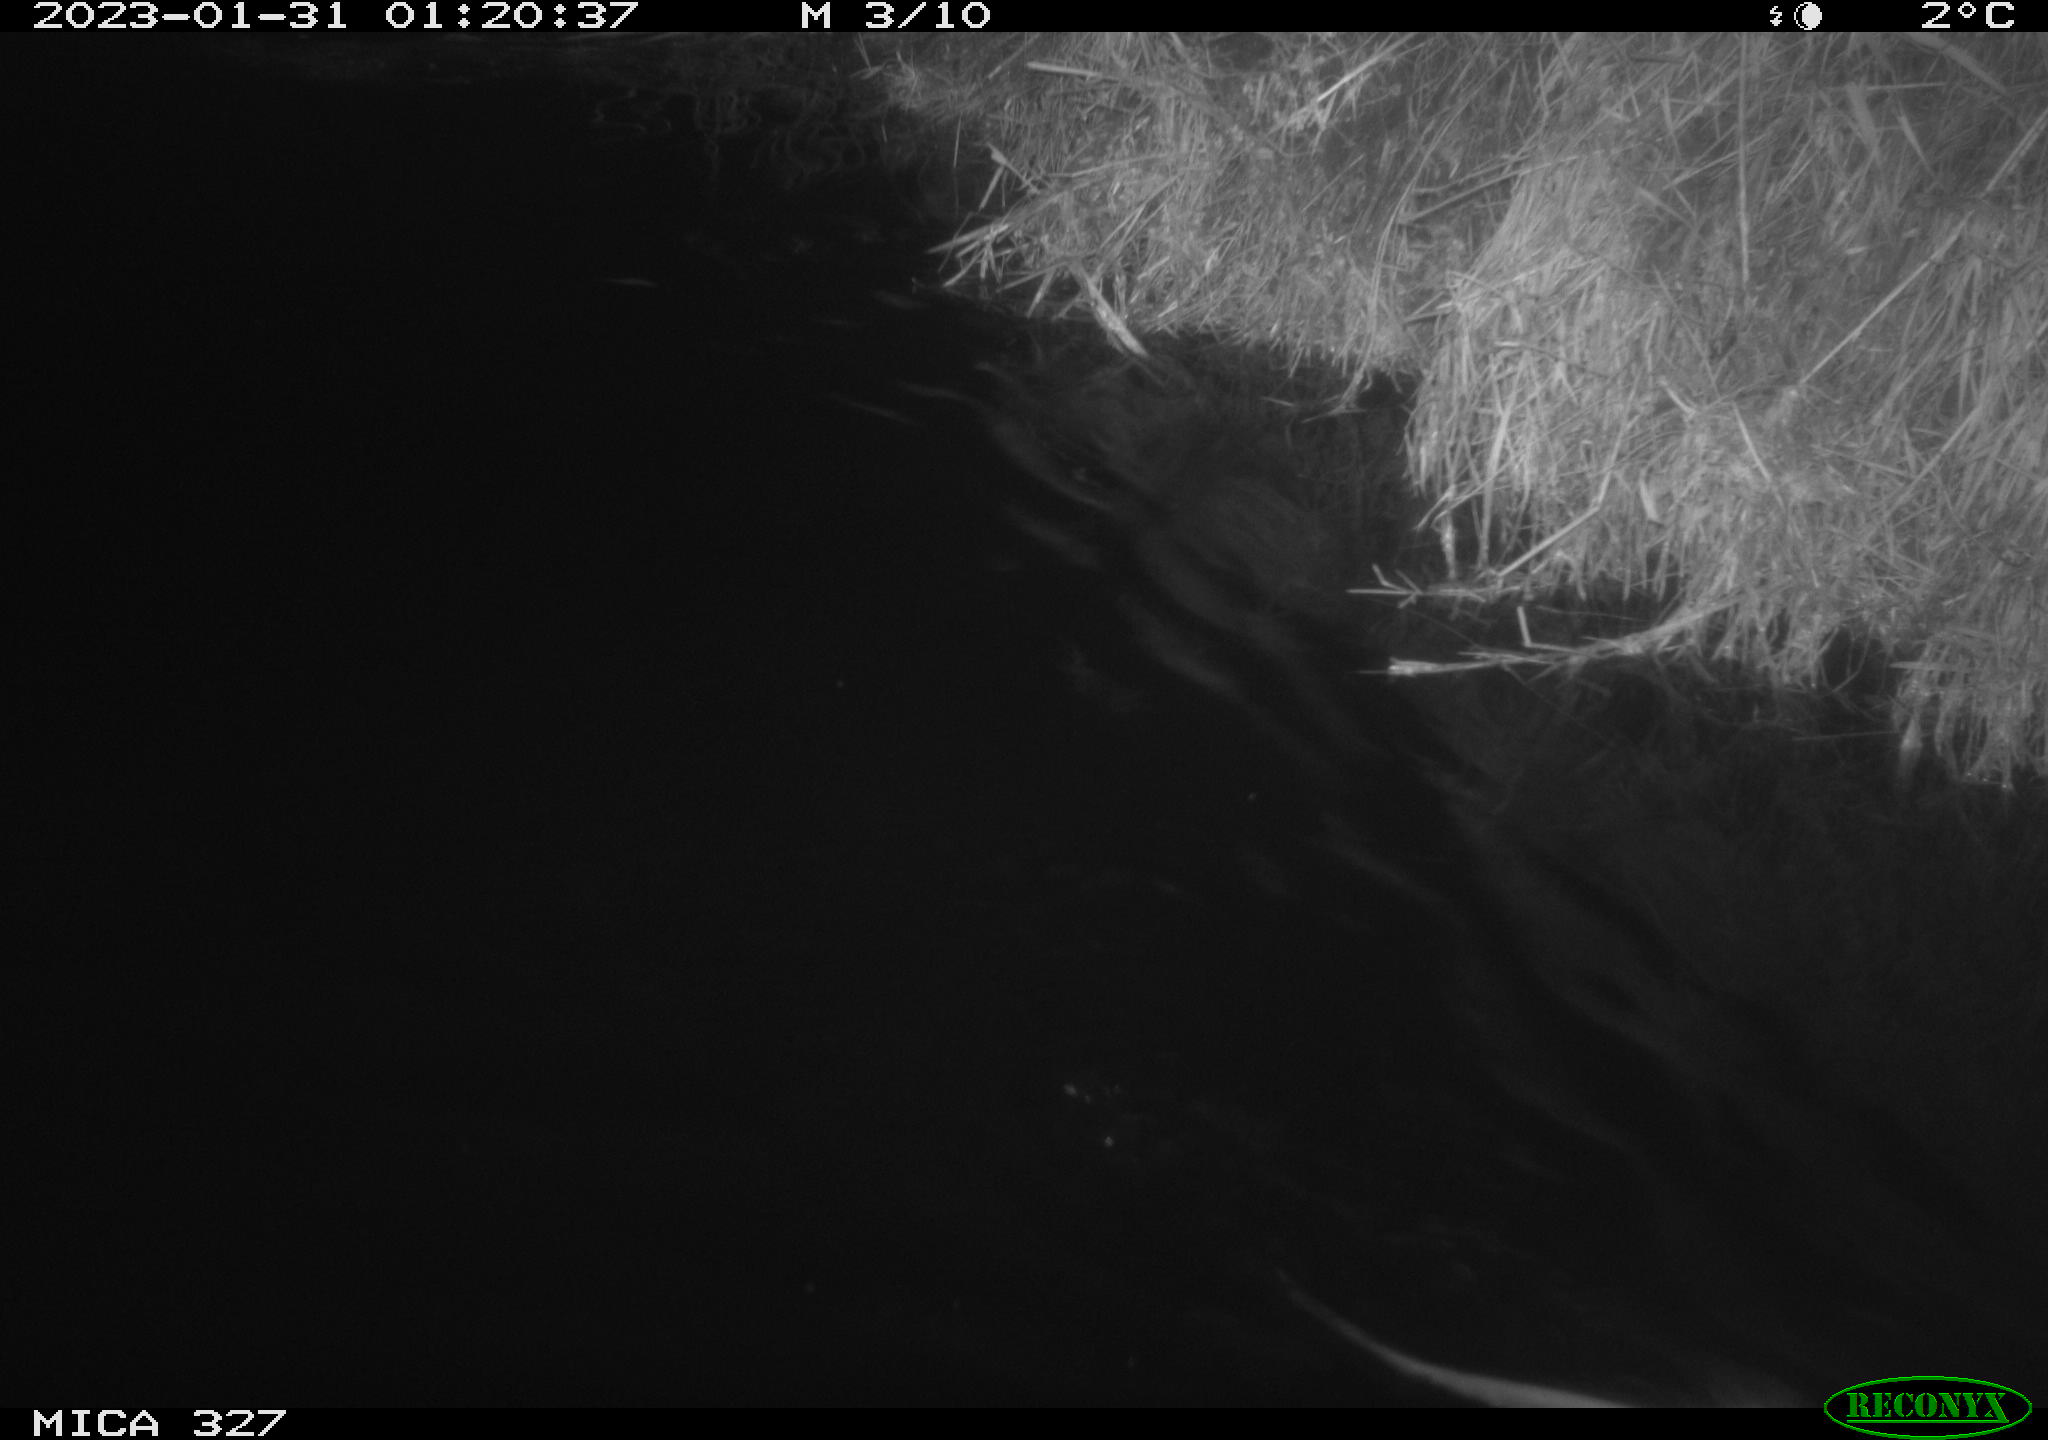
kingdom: Animalia
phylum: Chordata
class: Mammalia
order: Rodentia
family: Cricetidae
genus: Ondatra
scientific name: Ondatra zibethicus
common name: Muskrat
